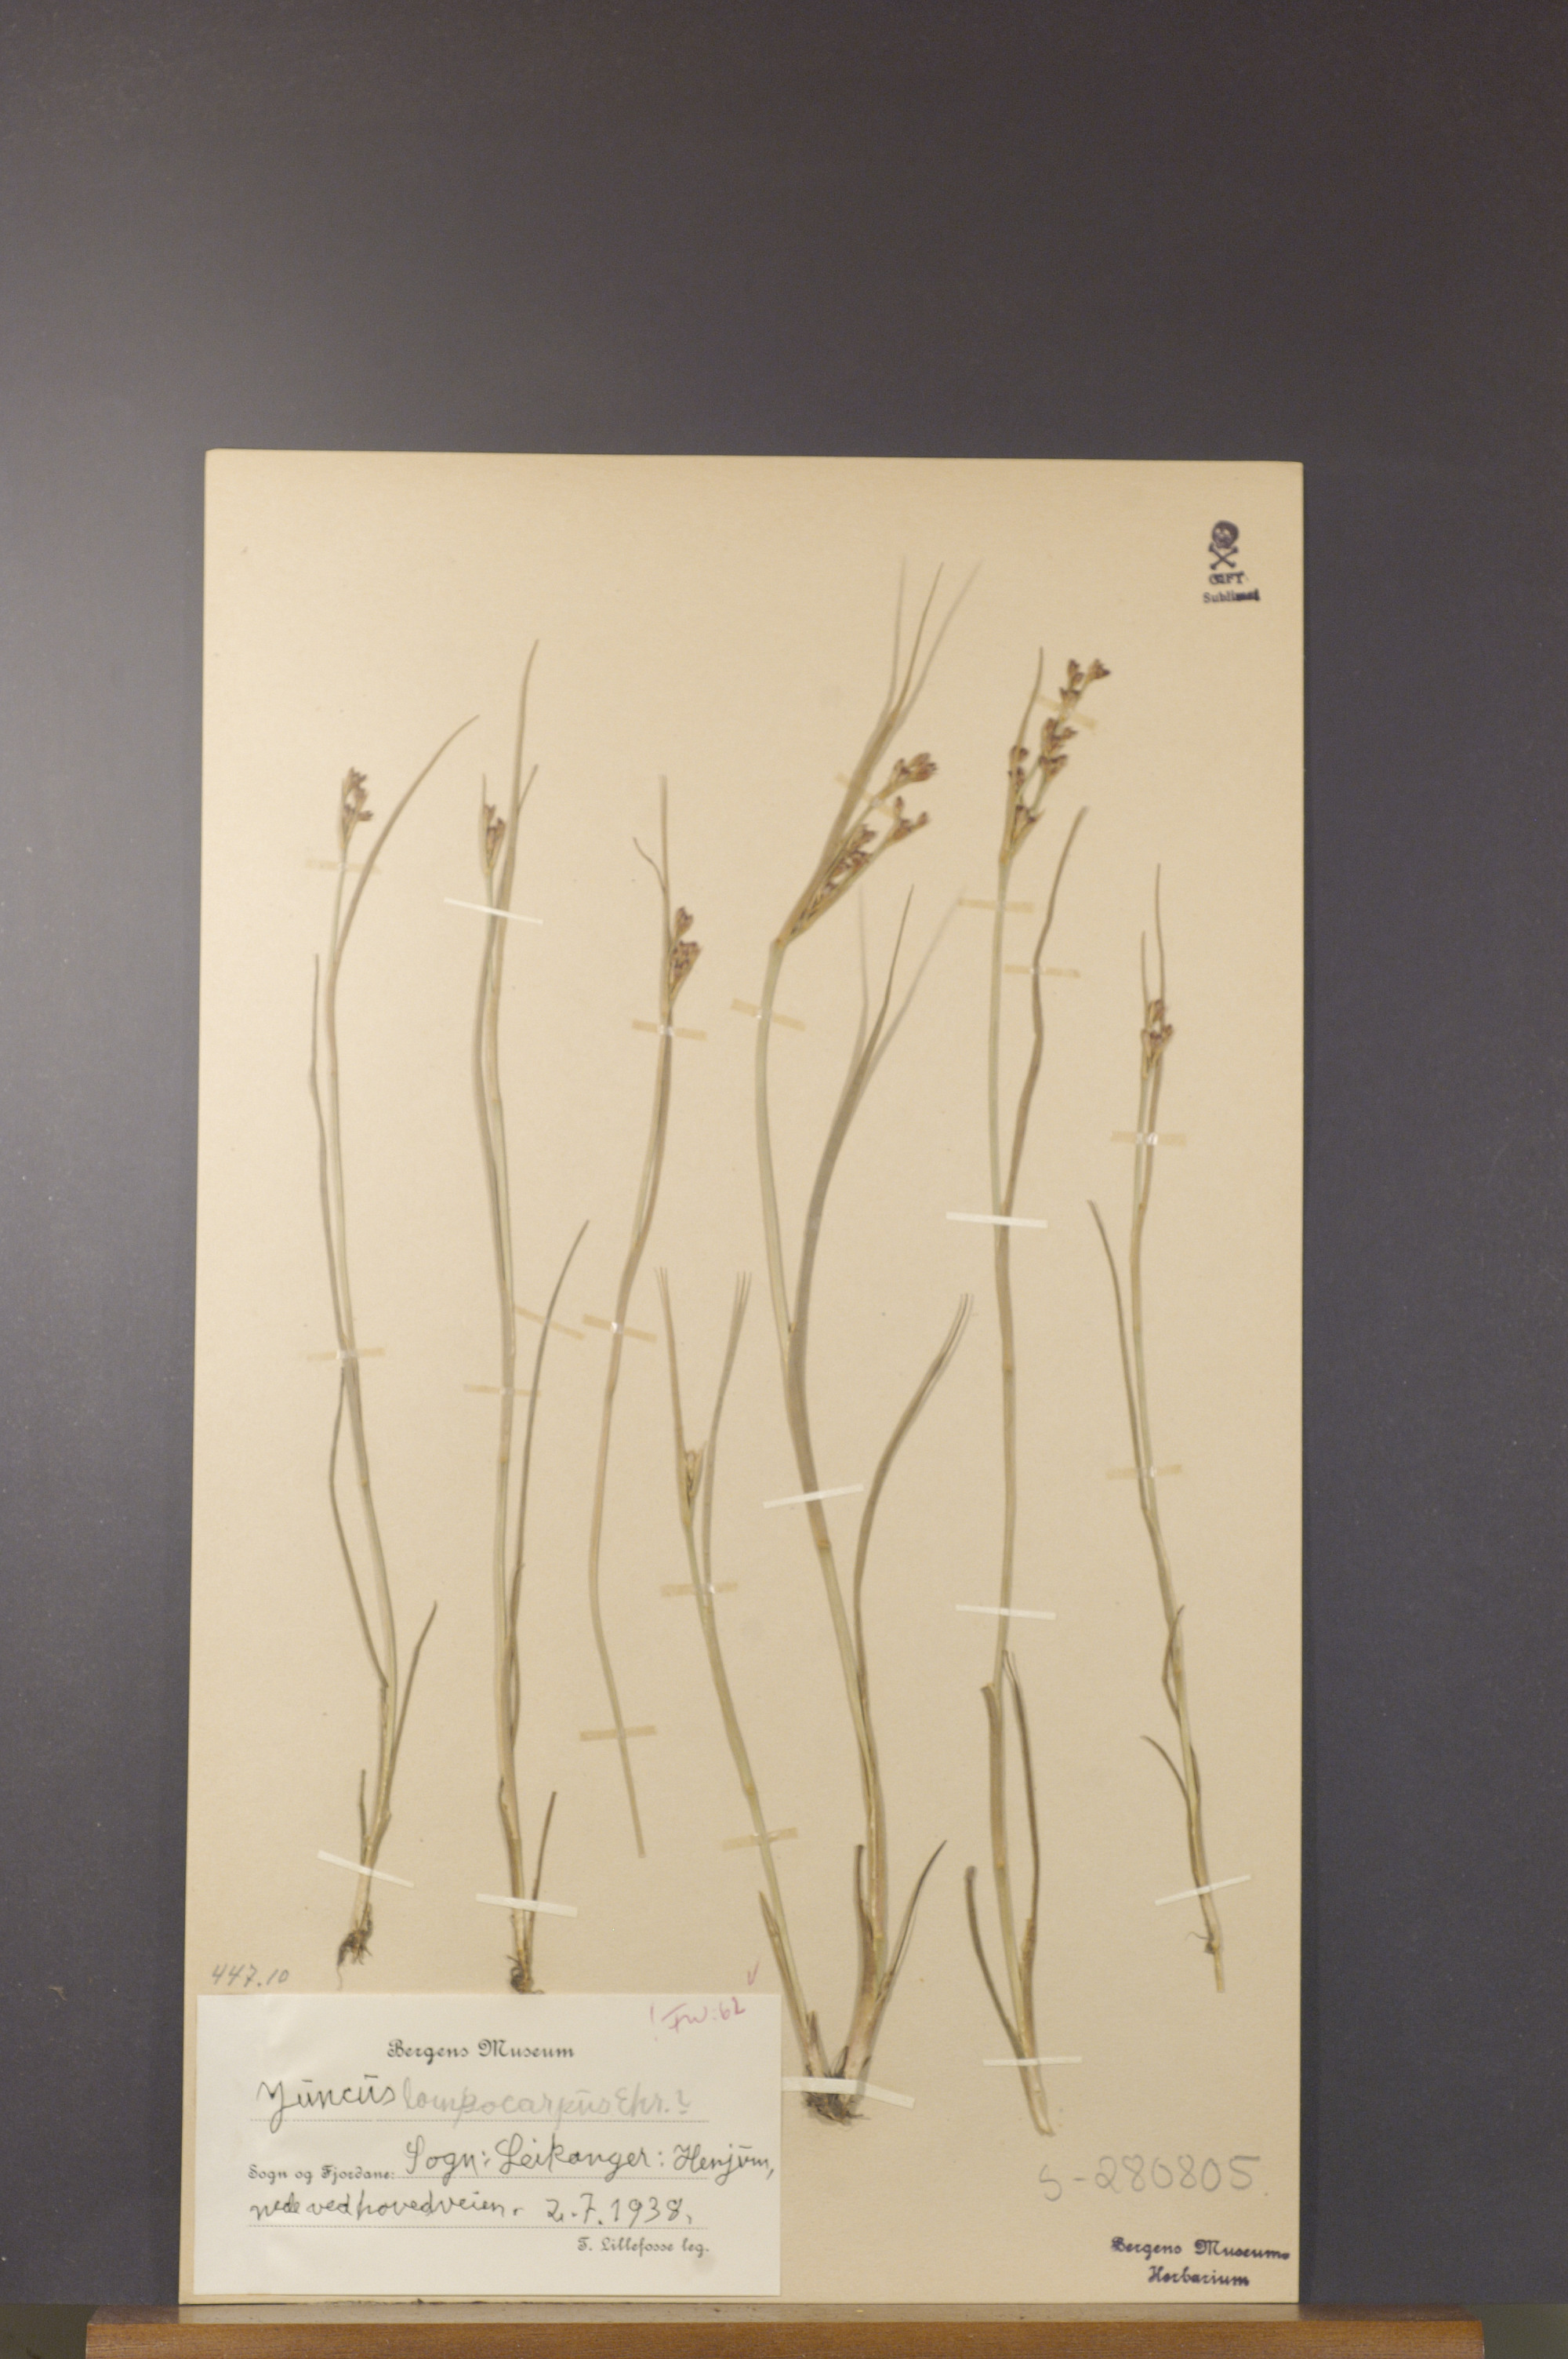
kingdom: Plantae
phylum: Tracheophyta
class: Liliopsida
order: Poales
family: Juncaceae
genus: Juncus
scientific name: Juncus articulatus
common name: Jointed rush
